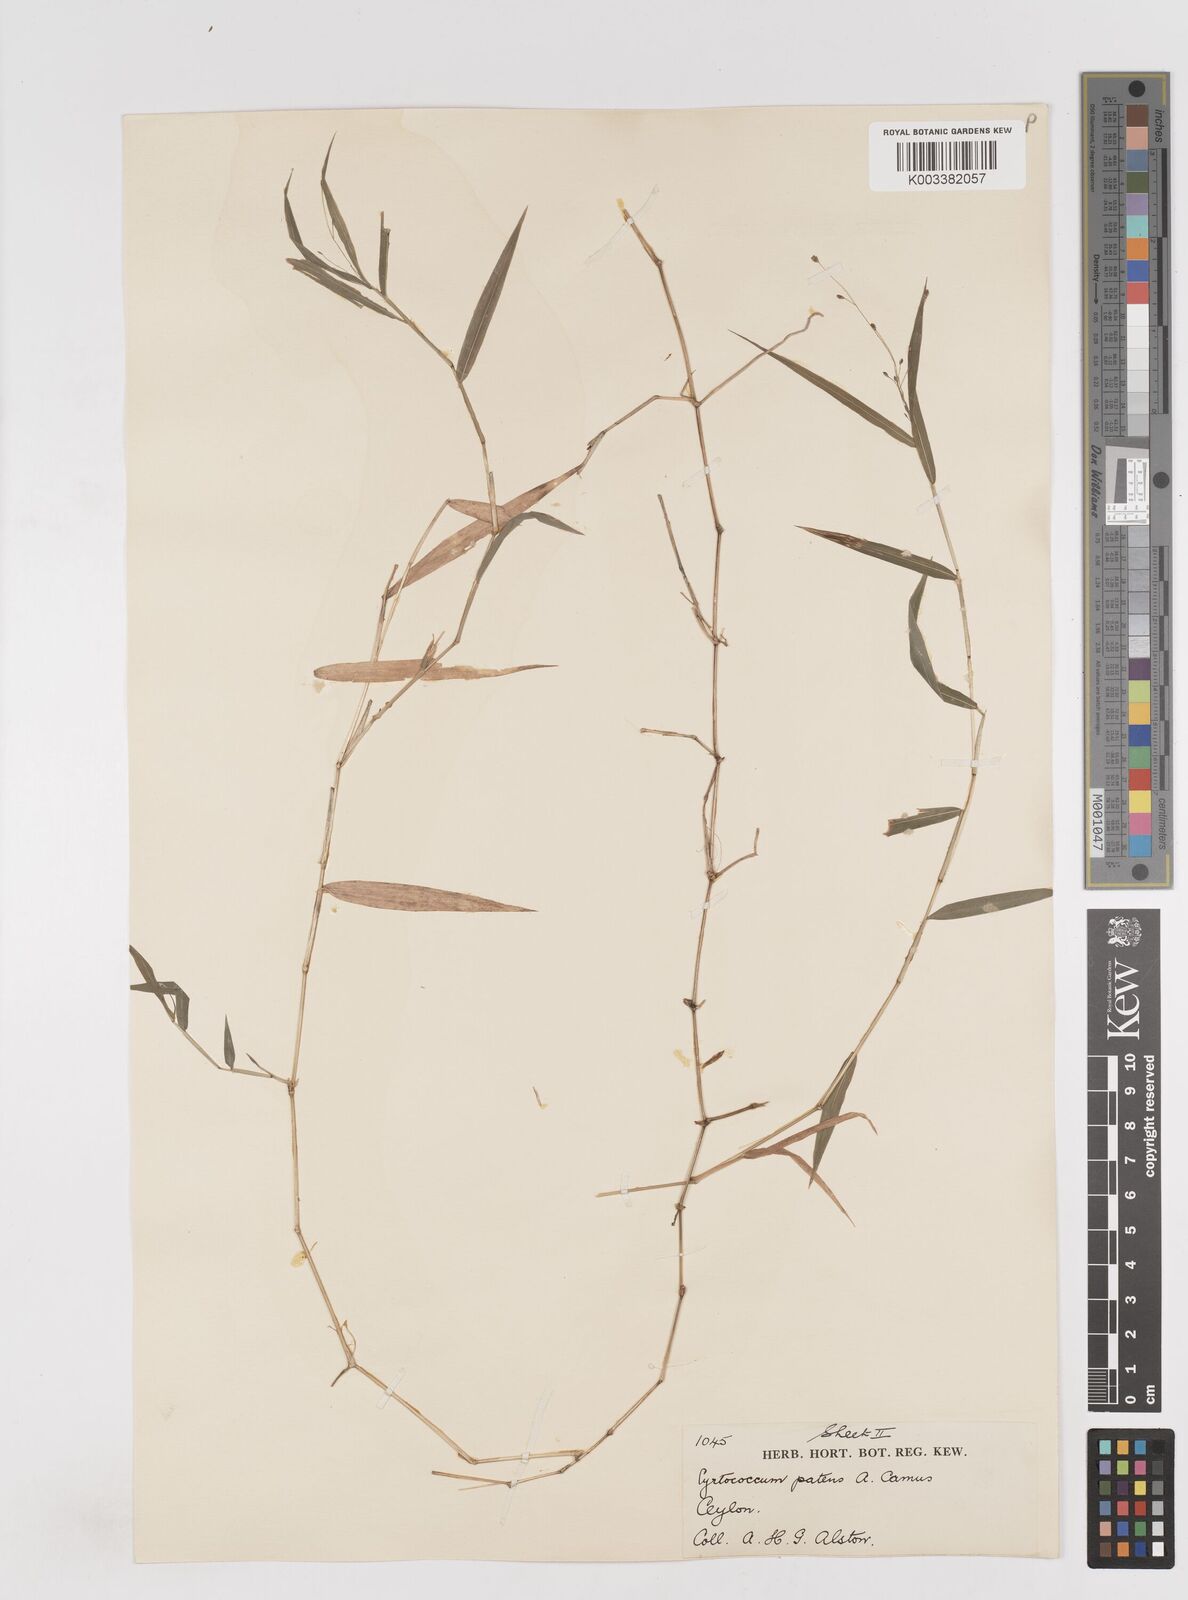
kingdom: Plantae
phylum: Tracheophyta
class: Liliopsida
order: Poales
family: Poaceae
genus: Cyrtococcum
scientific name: Cyrtococcum deccanense
